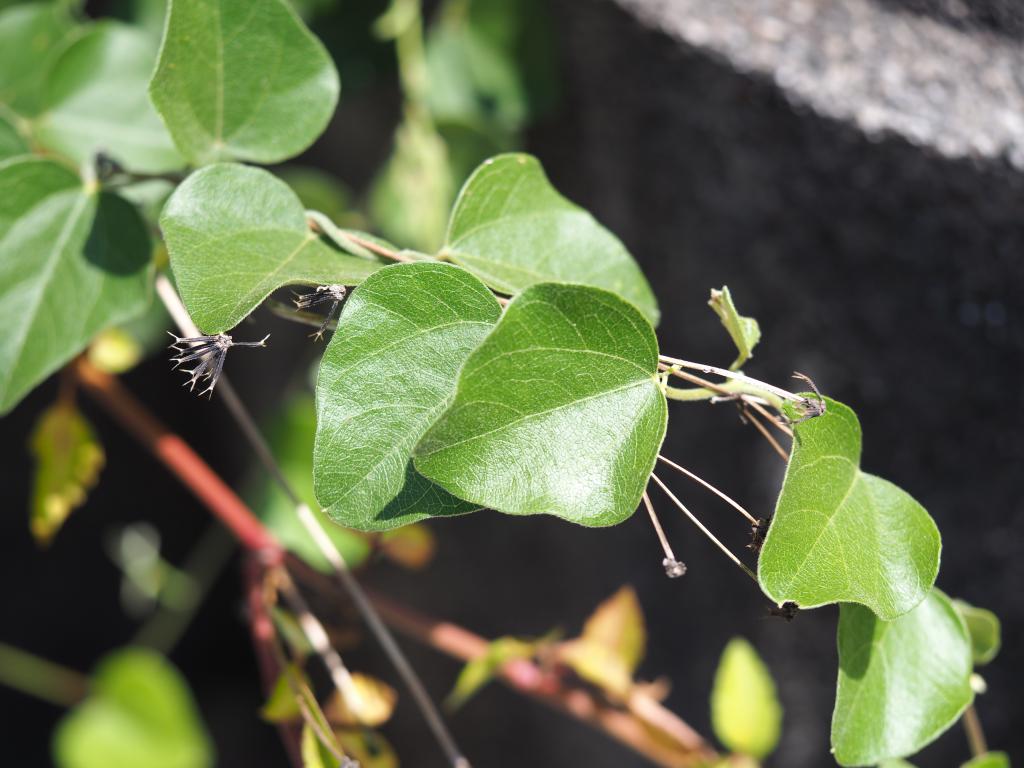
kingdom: Plantae
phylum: Tracheophyta
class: Magnoliopsida
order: Ranunculales
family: Menispermaceae
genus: Cocculus
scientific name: Cocculus orbiculatus
